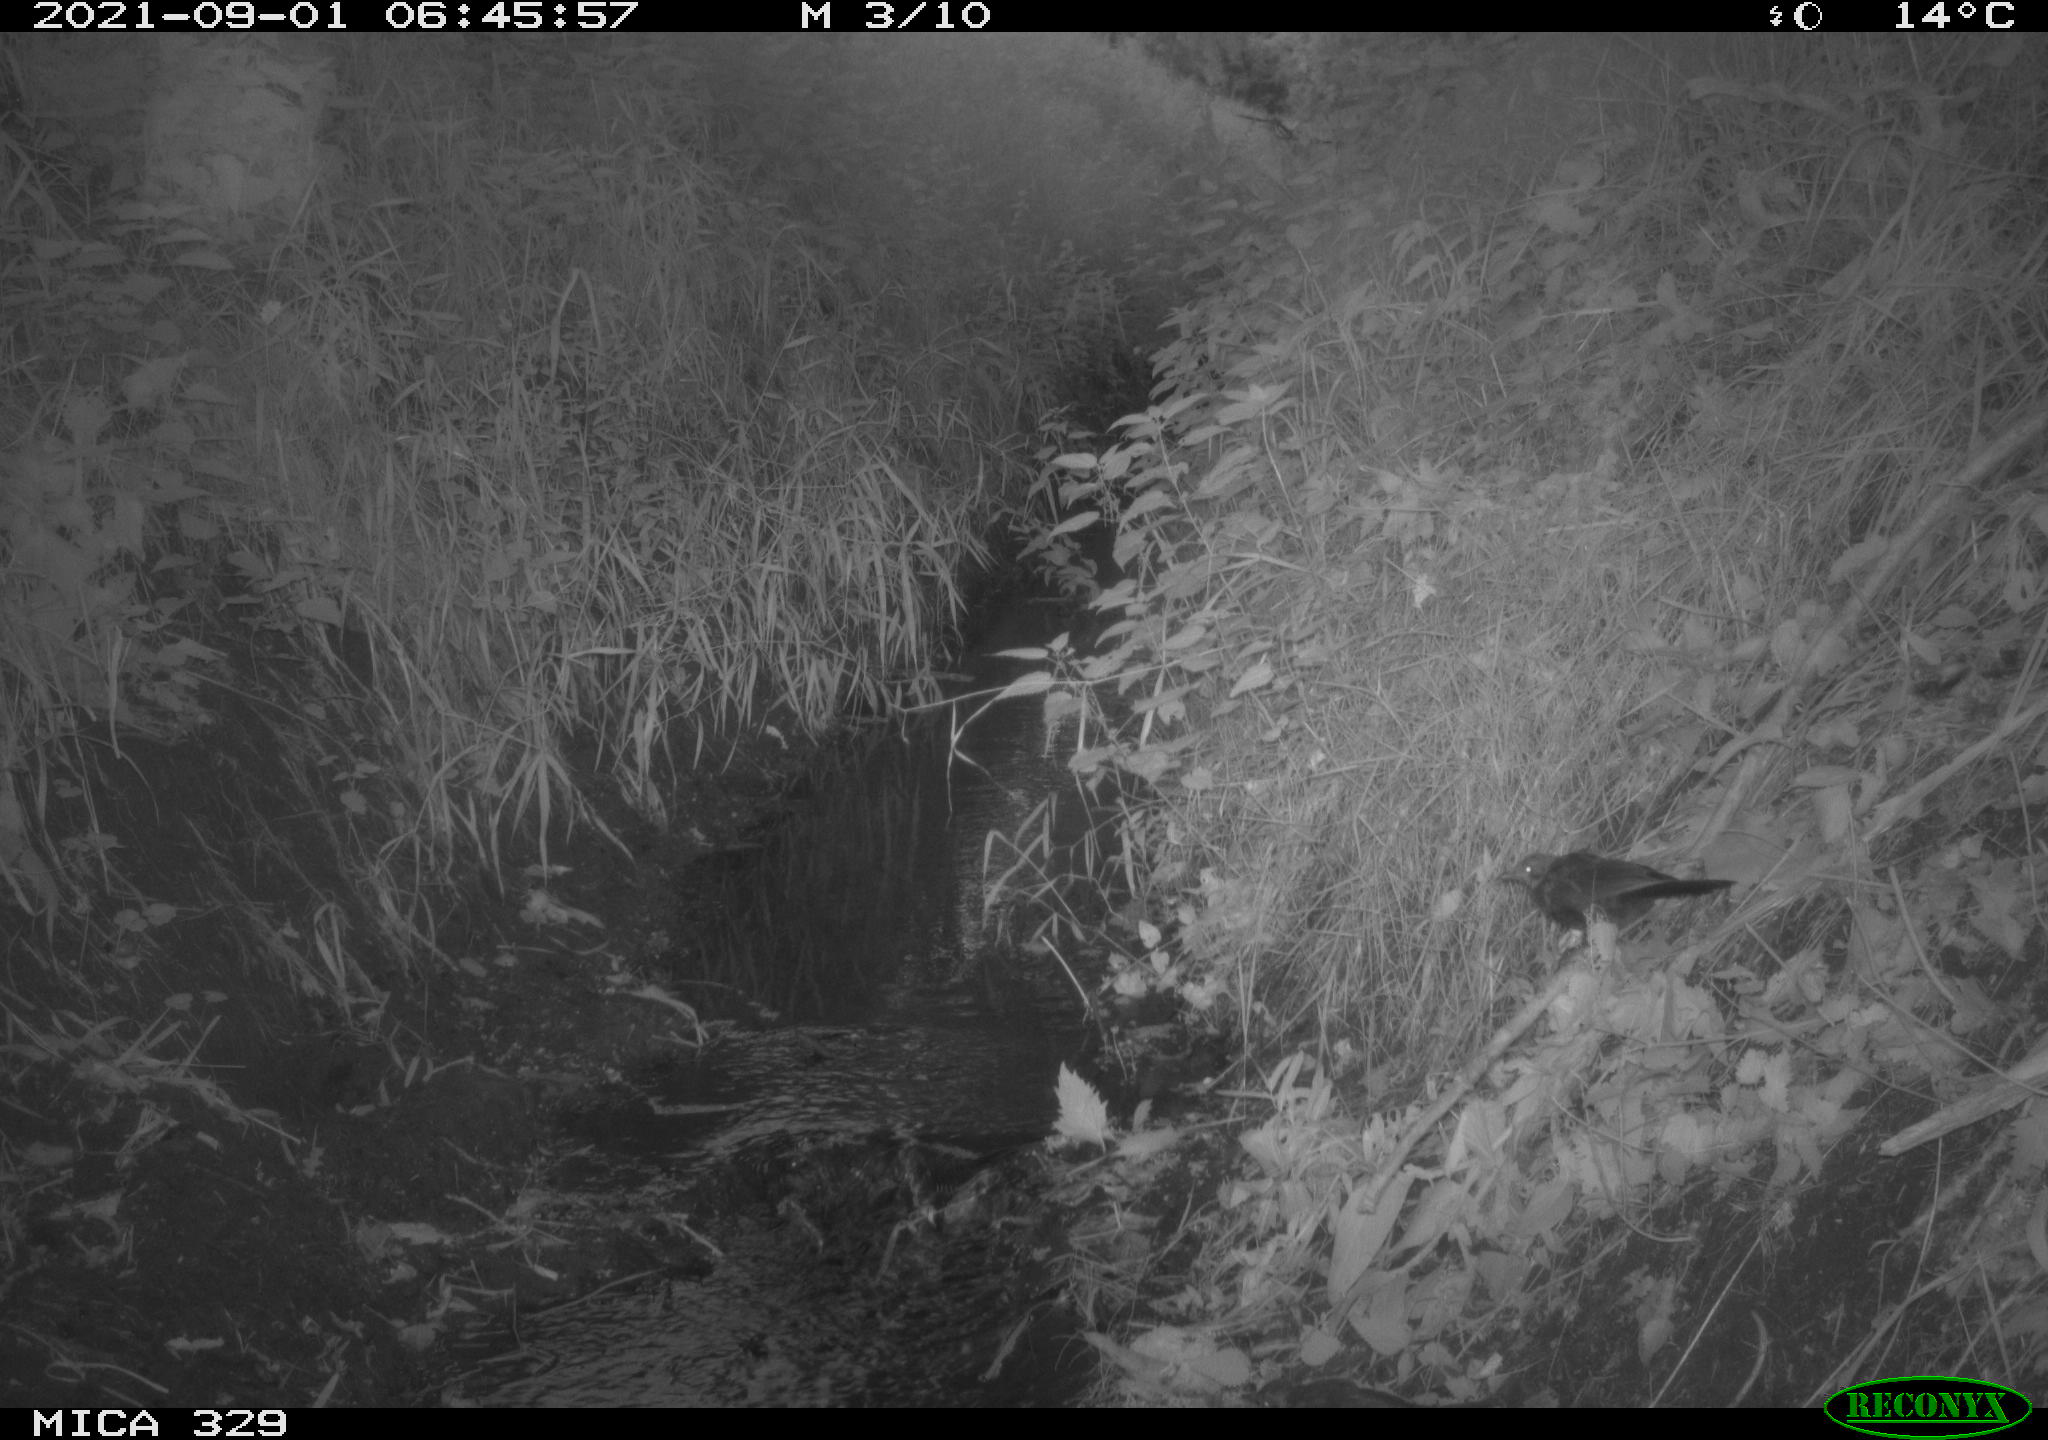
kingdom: Animalia
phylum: Chordata
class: Aves
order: Passeriformes
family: Turdidae
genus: Turdus
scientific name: Turdus merula
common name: Common blackbird
